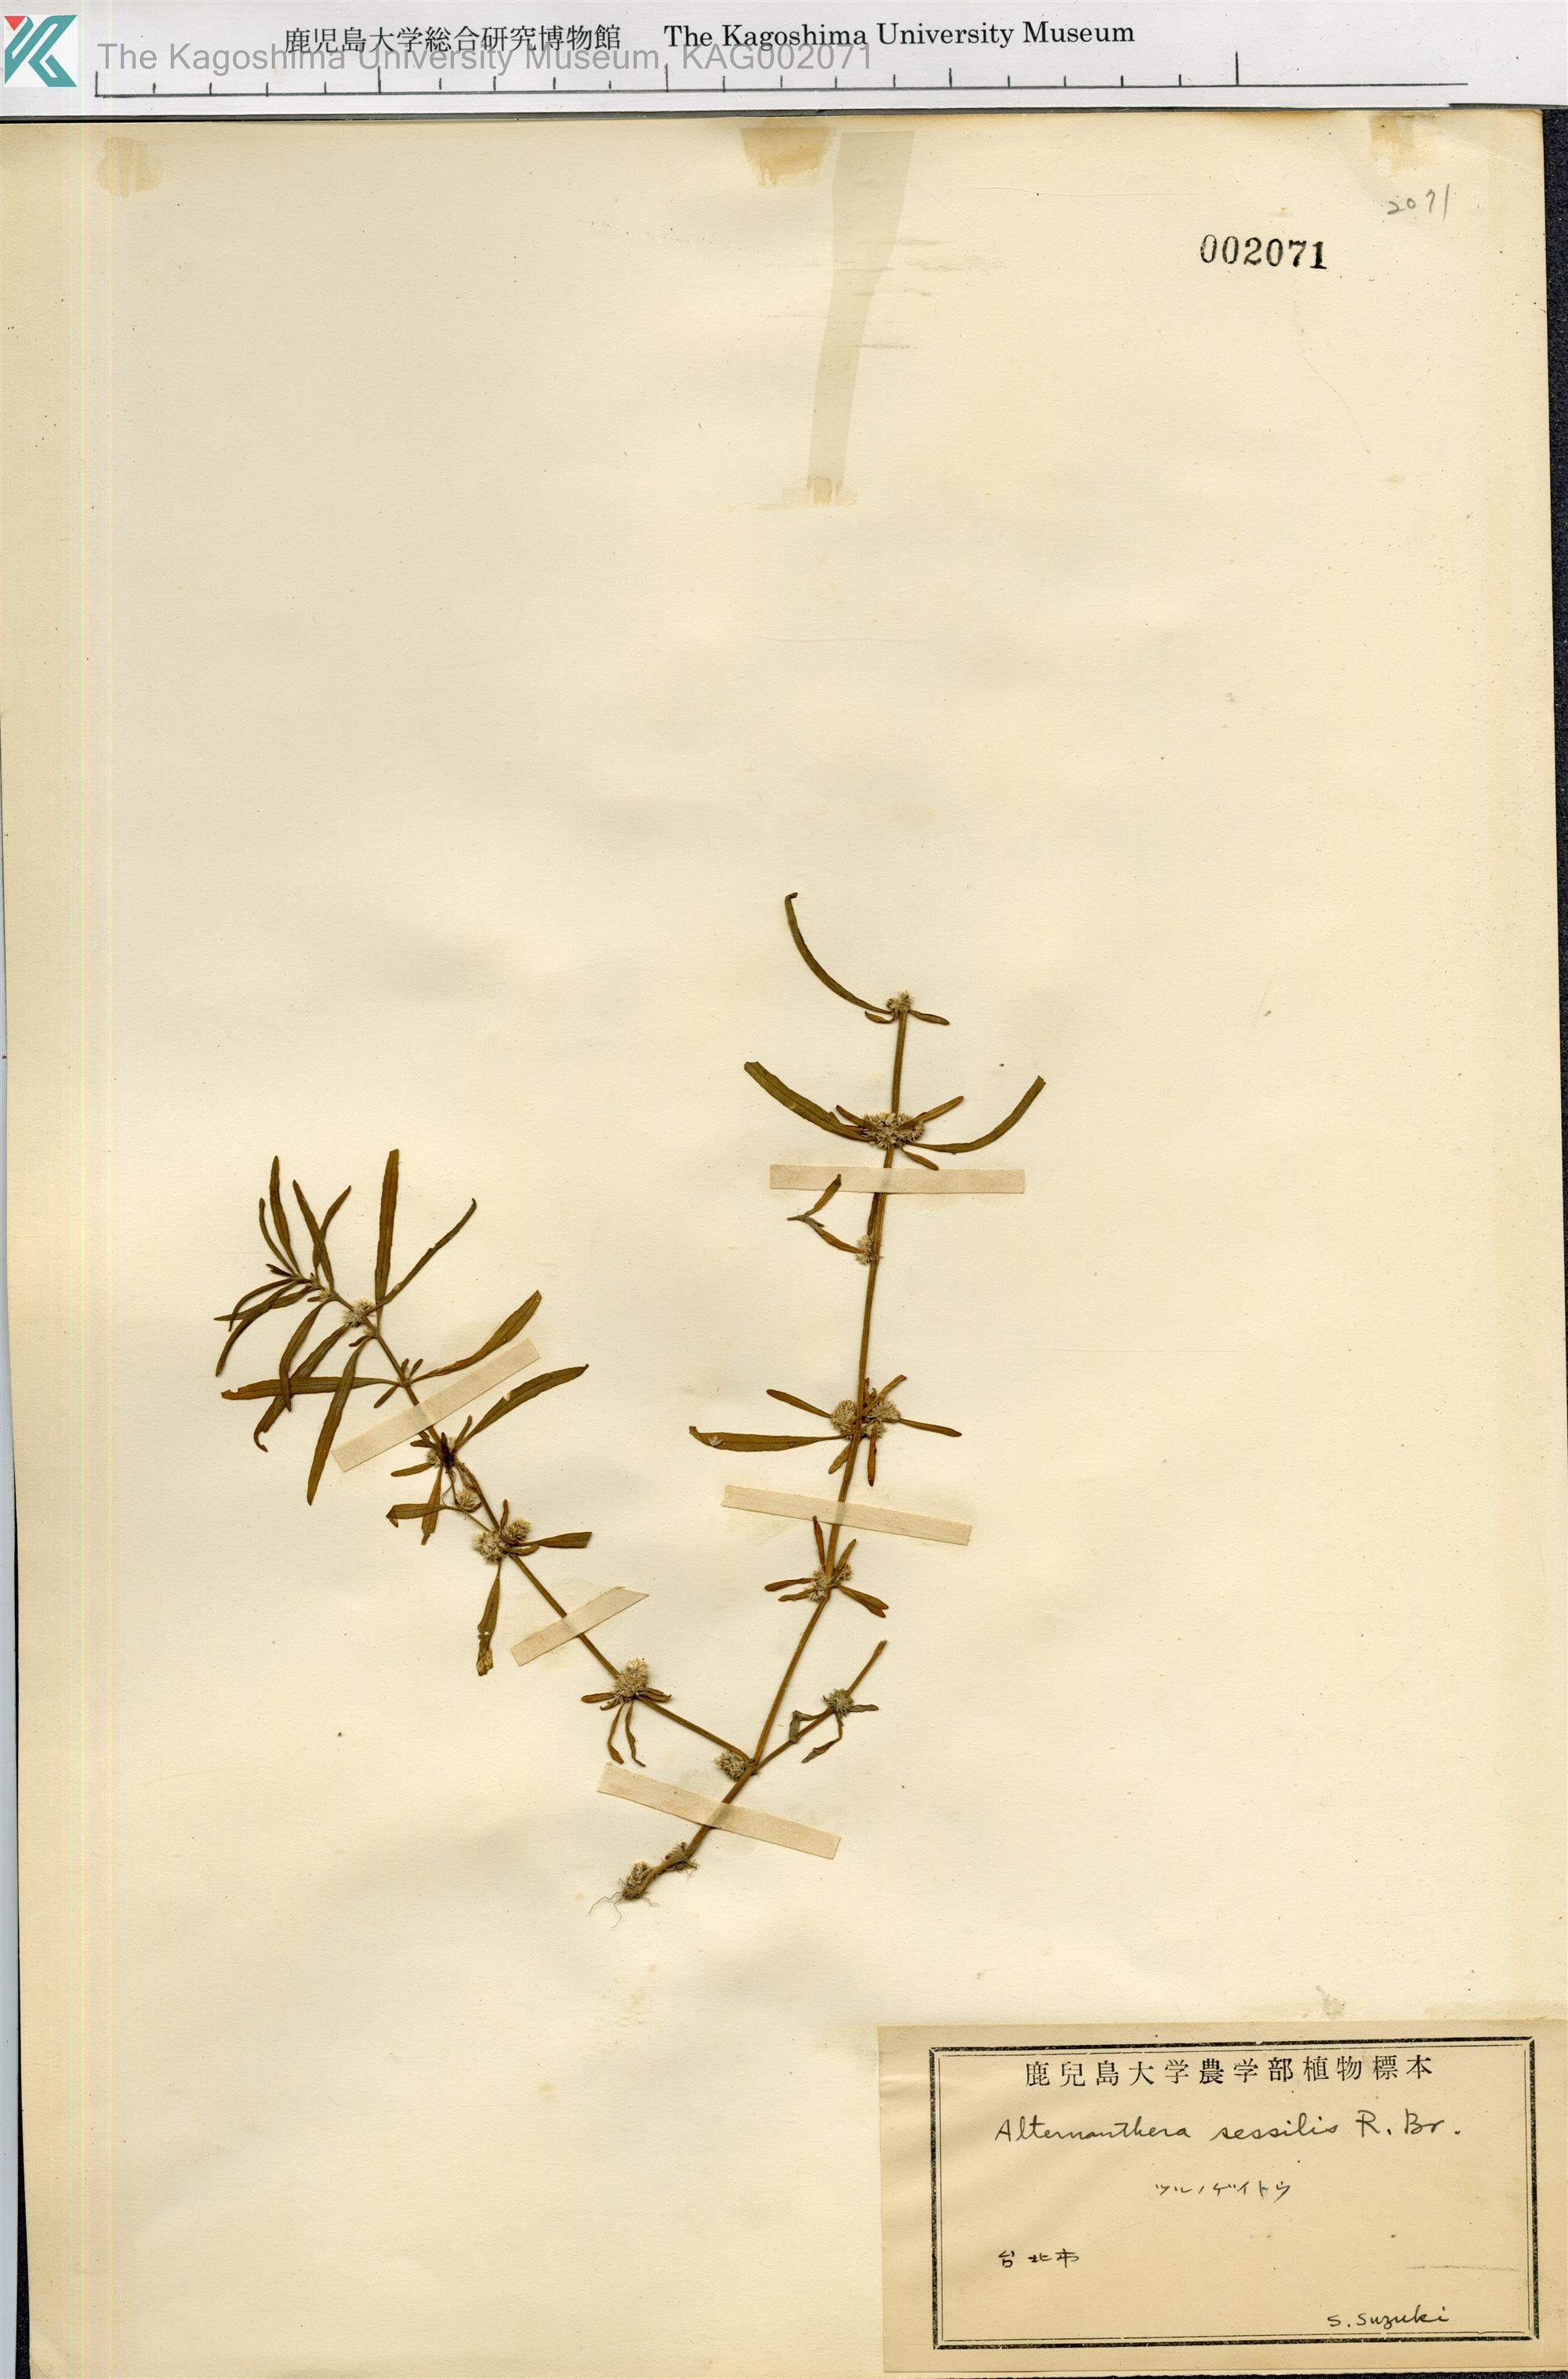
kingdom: Plantae
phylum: Tracheophyta
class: Magnoliopsida
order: Caryophyllales
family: Amaranthaceae
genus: Alternanthera
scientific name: Alternanthera sessilis
